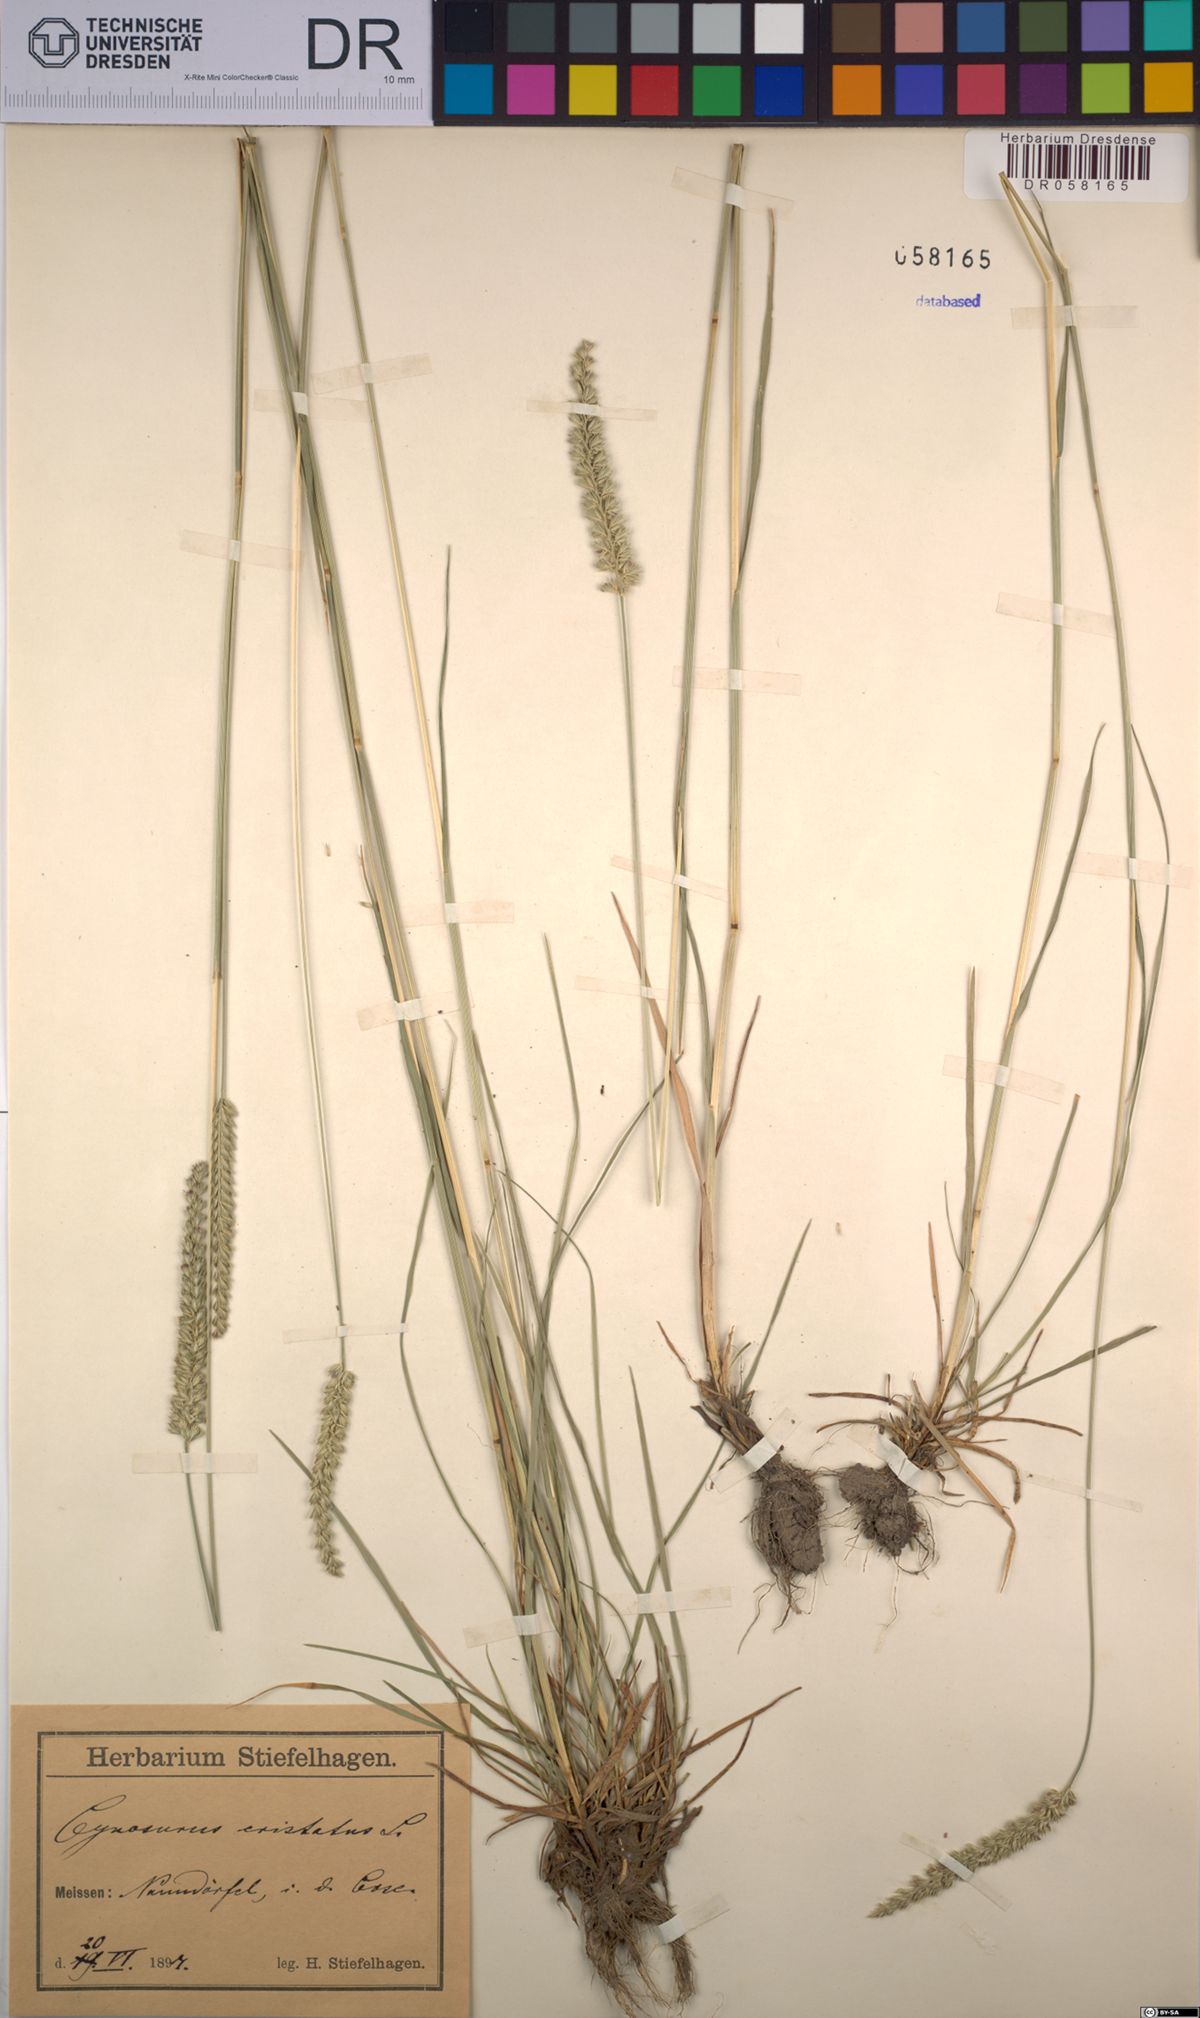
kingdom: Plantae
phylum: Tracheophyta
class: Liliopsida
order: Poales
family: Poaceae
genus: Cynosurus
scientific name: Cynosurus cristatus
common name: Crested dog's-tail
